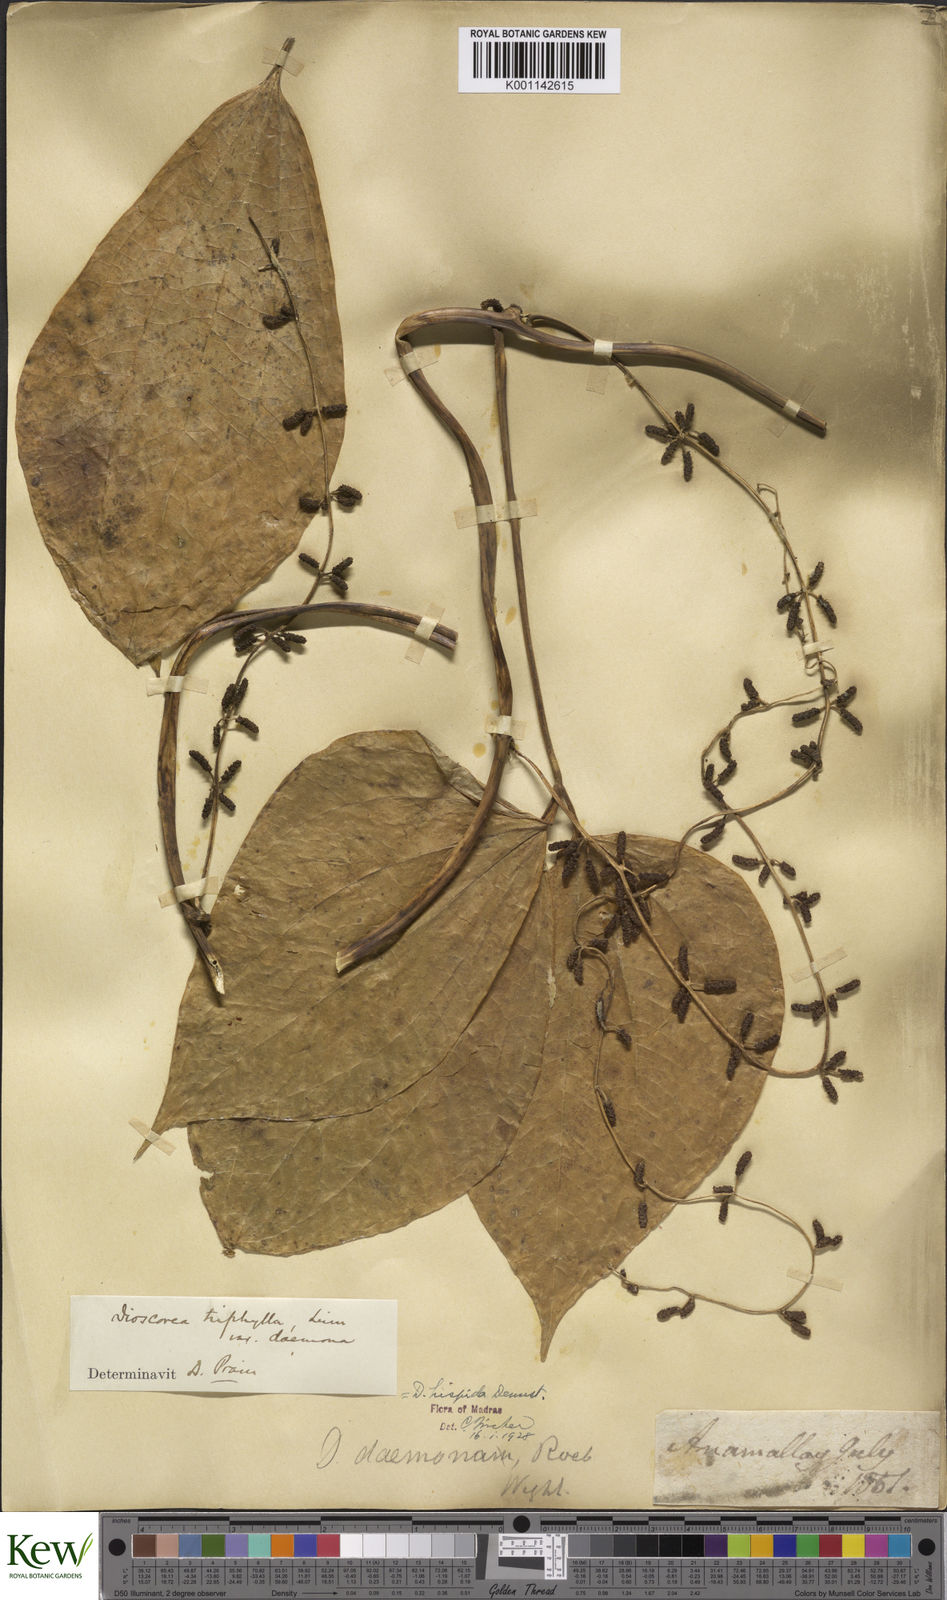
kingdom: Plantae
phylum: Tracheophyta
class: Liliopsida
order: Dioscoreales
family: Dioscoreaceae
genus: Dioscorea
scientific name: Dioscorea hispida
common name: Asiatic bitter yam
